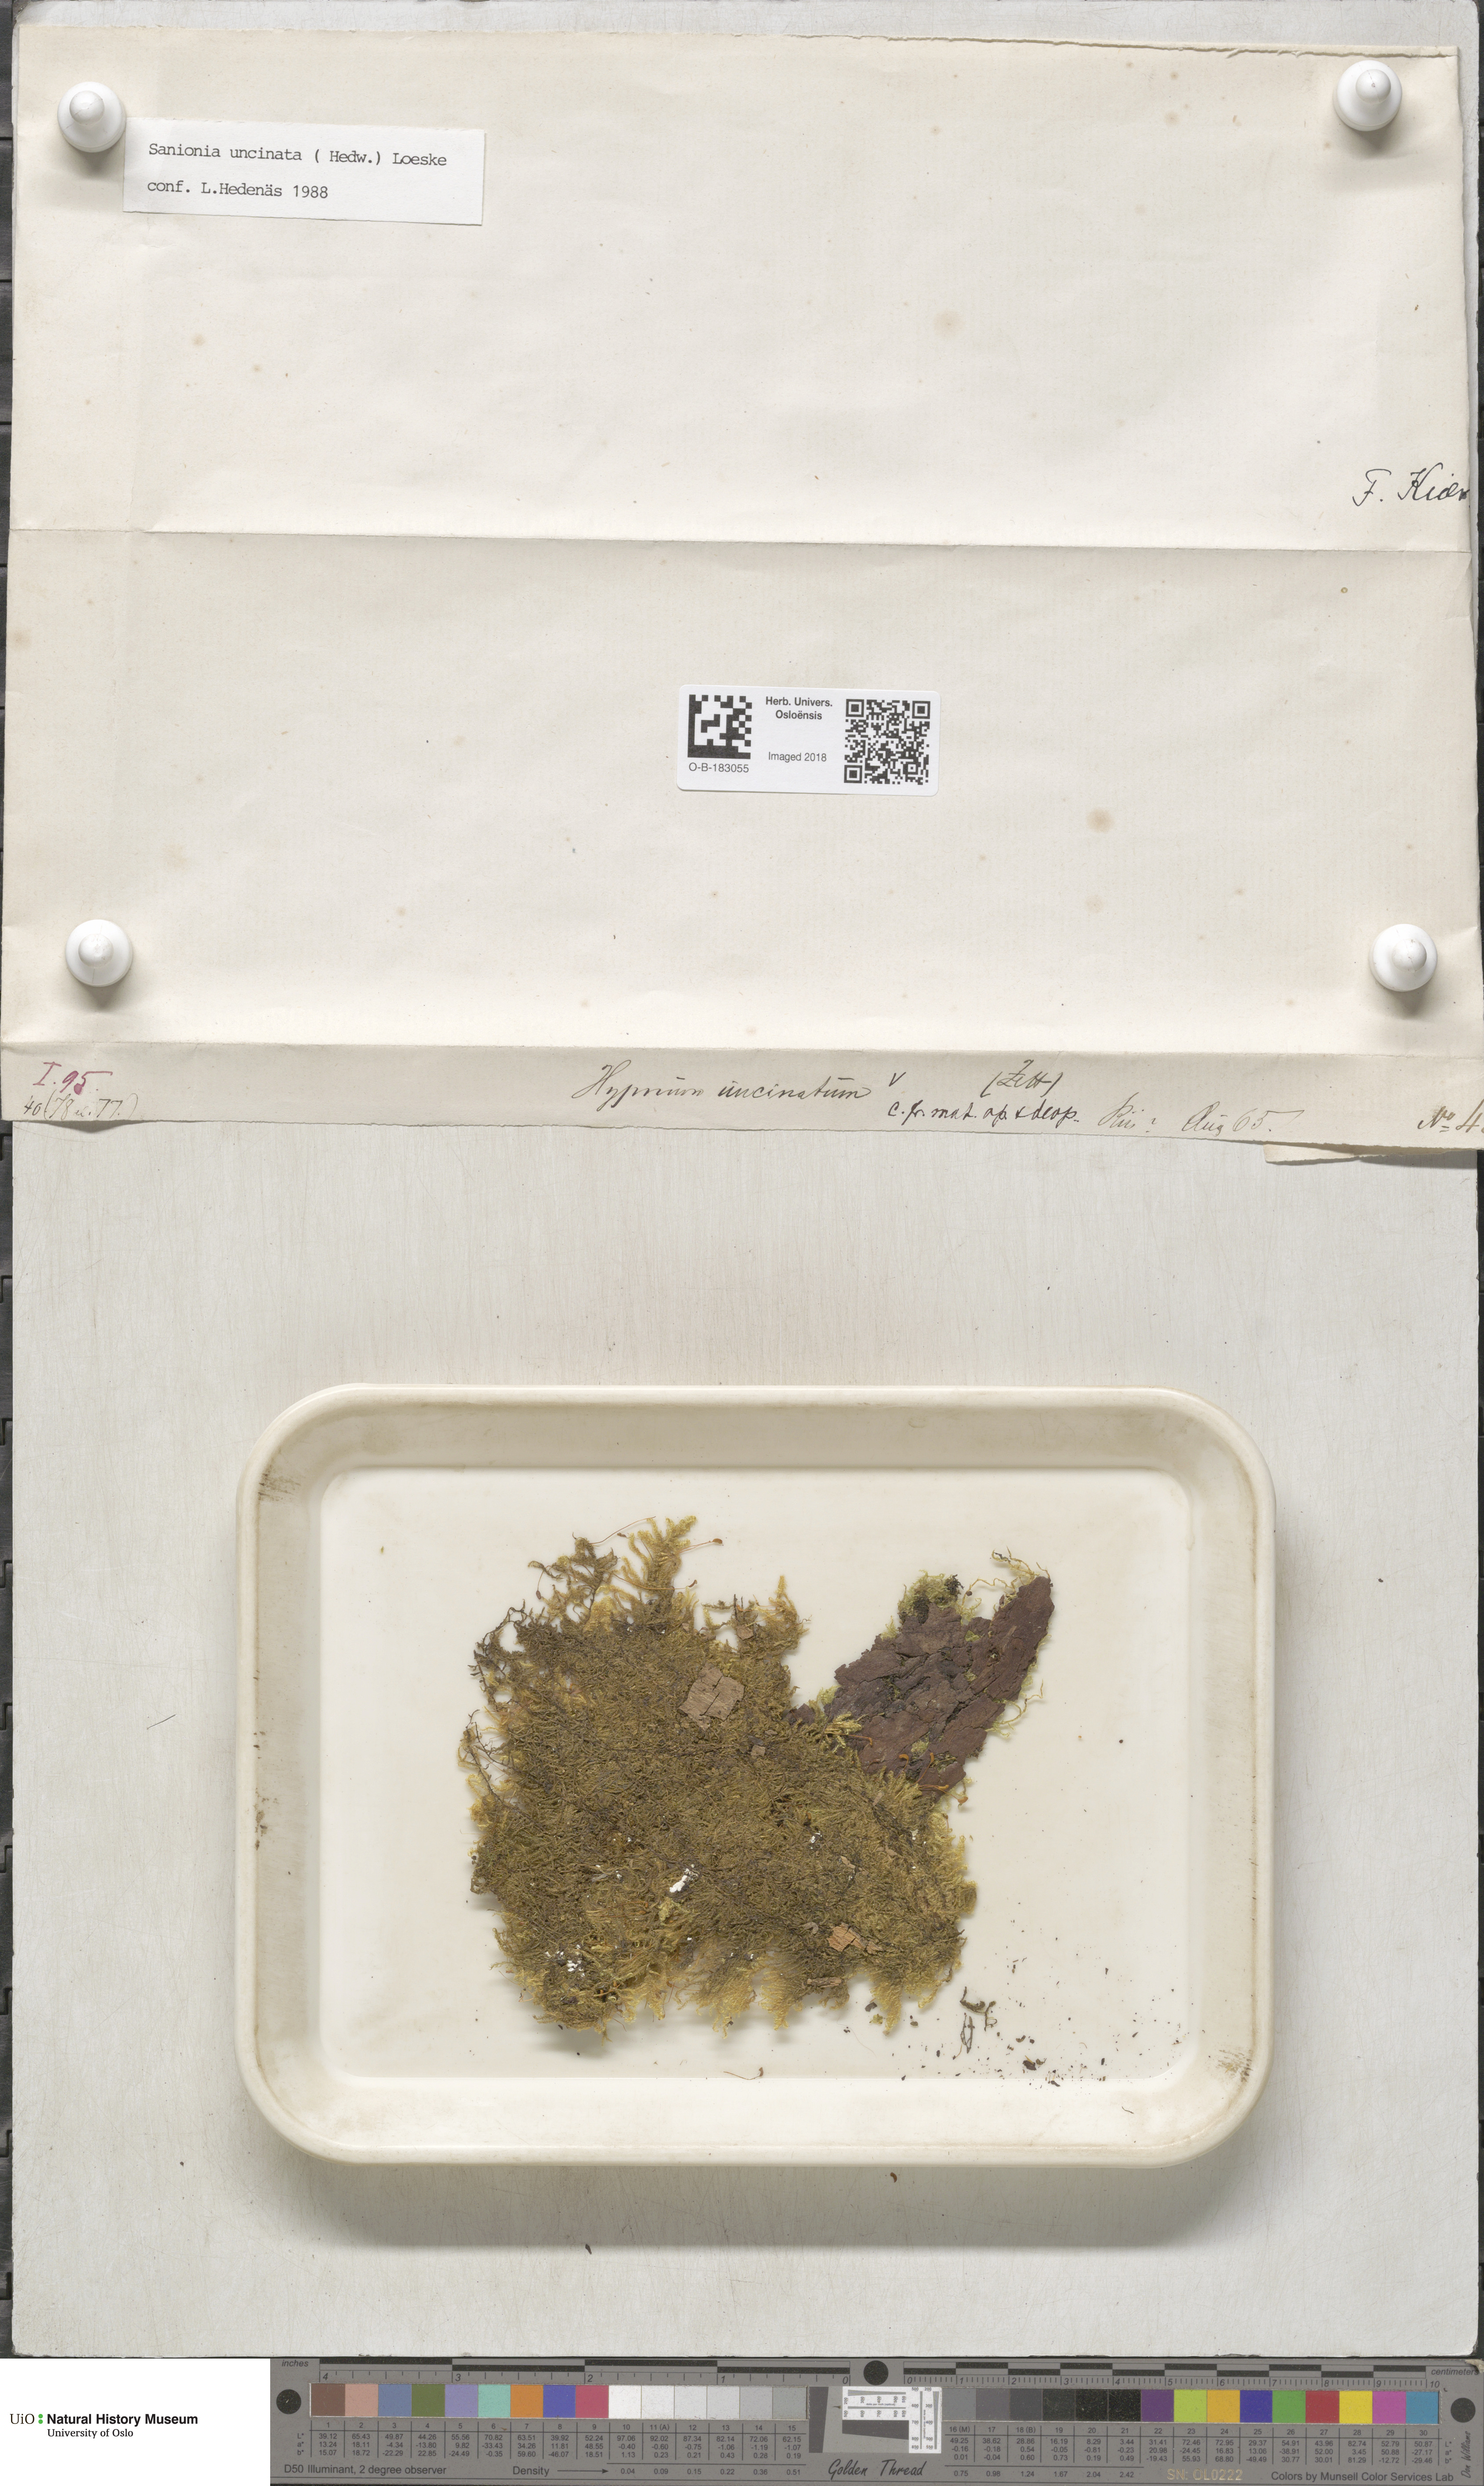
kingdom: Plantae
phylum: Bryophyta
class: Bryopsida
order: Hypnales
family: Scorpidiaceae
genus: Sanionia
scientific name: Sanionia uncinata
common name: Sickle moss
